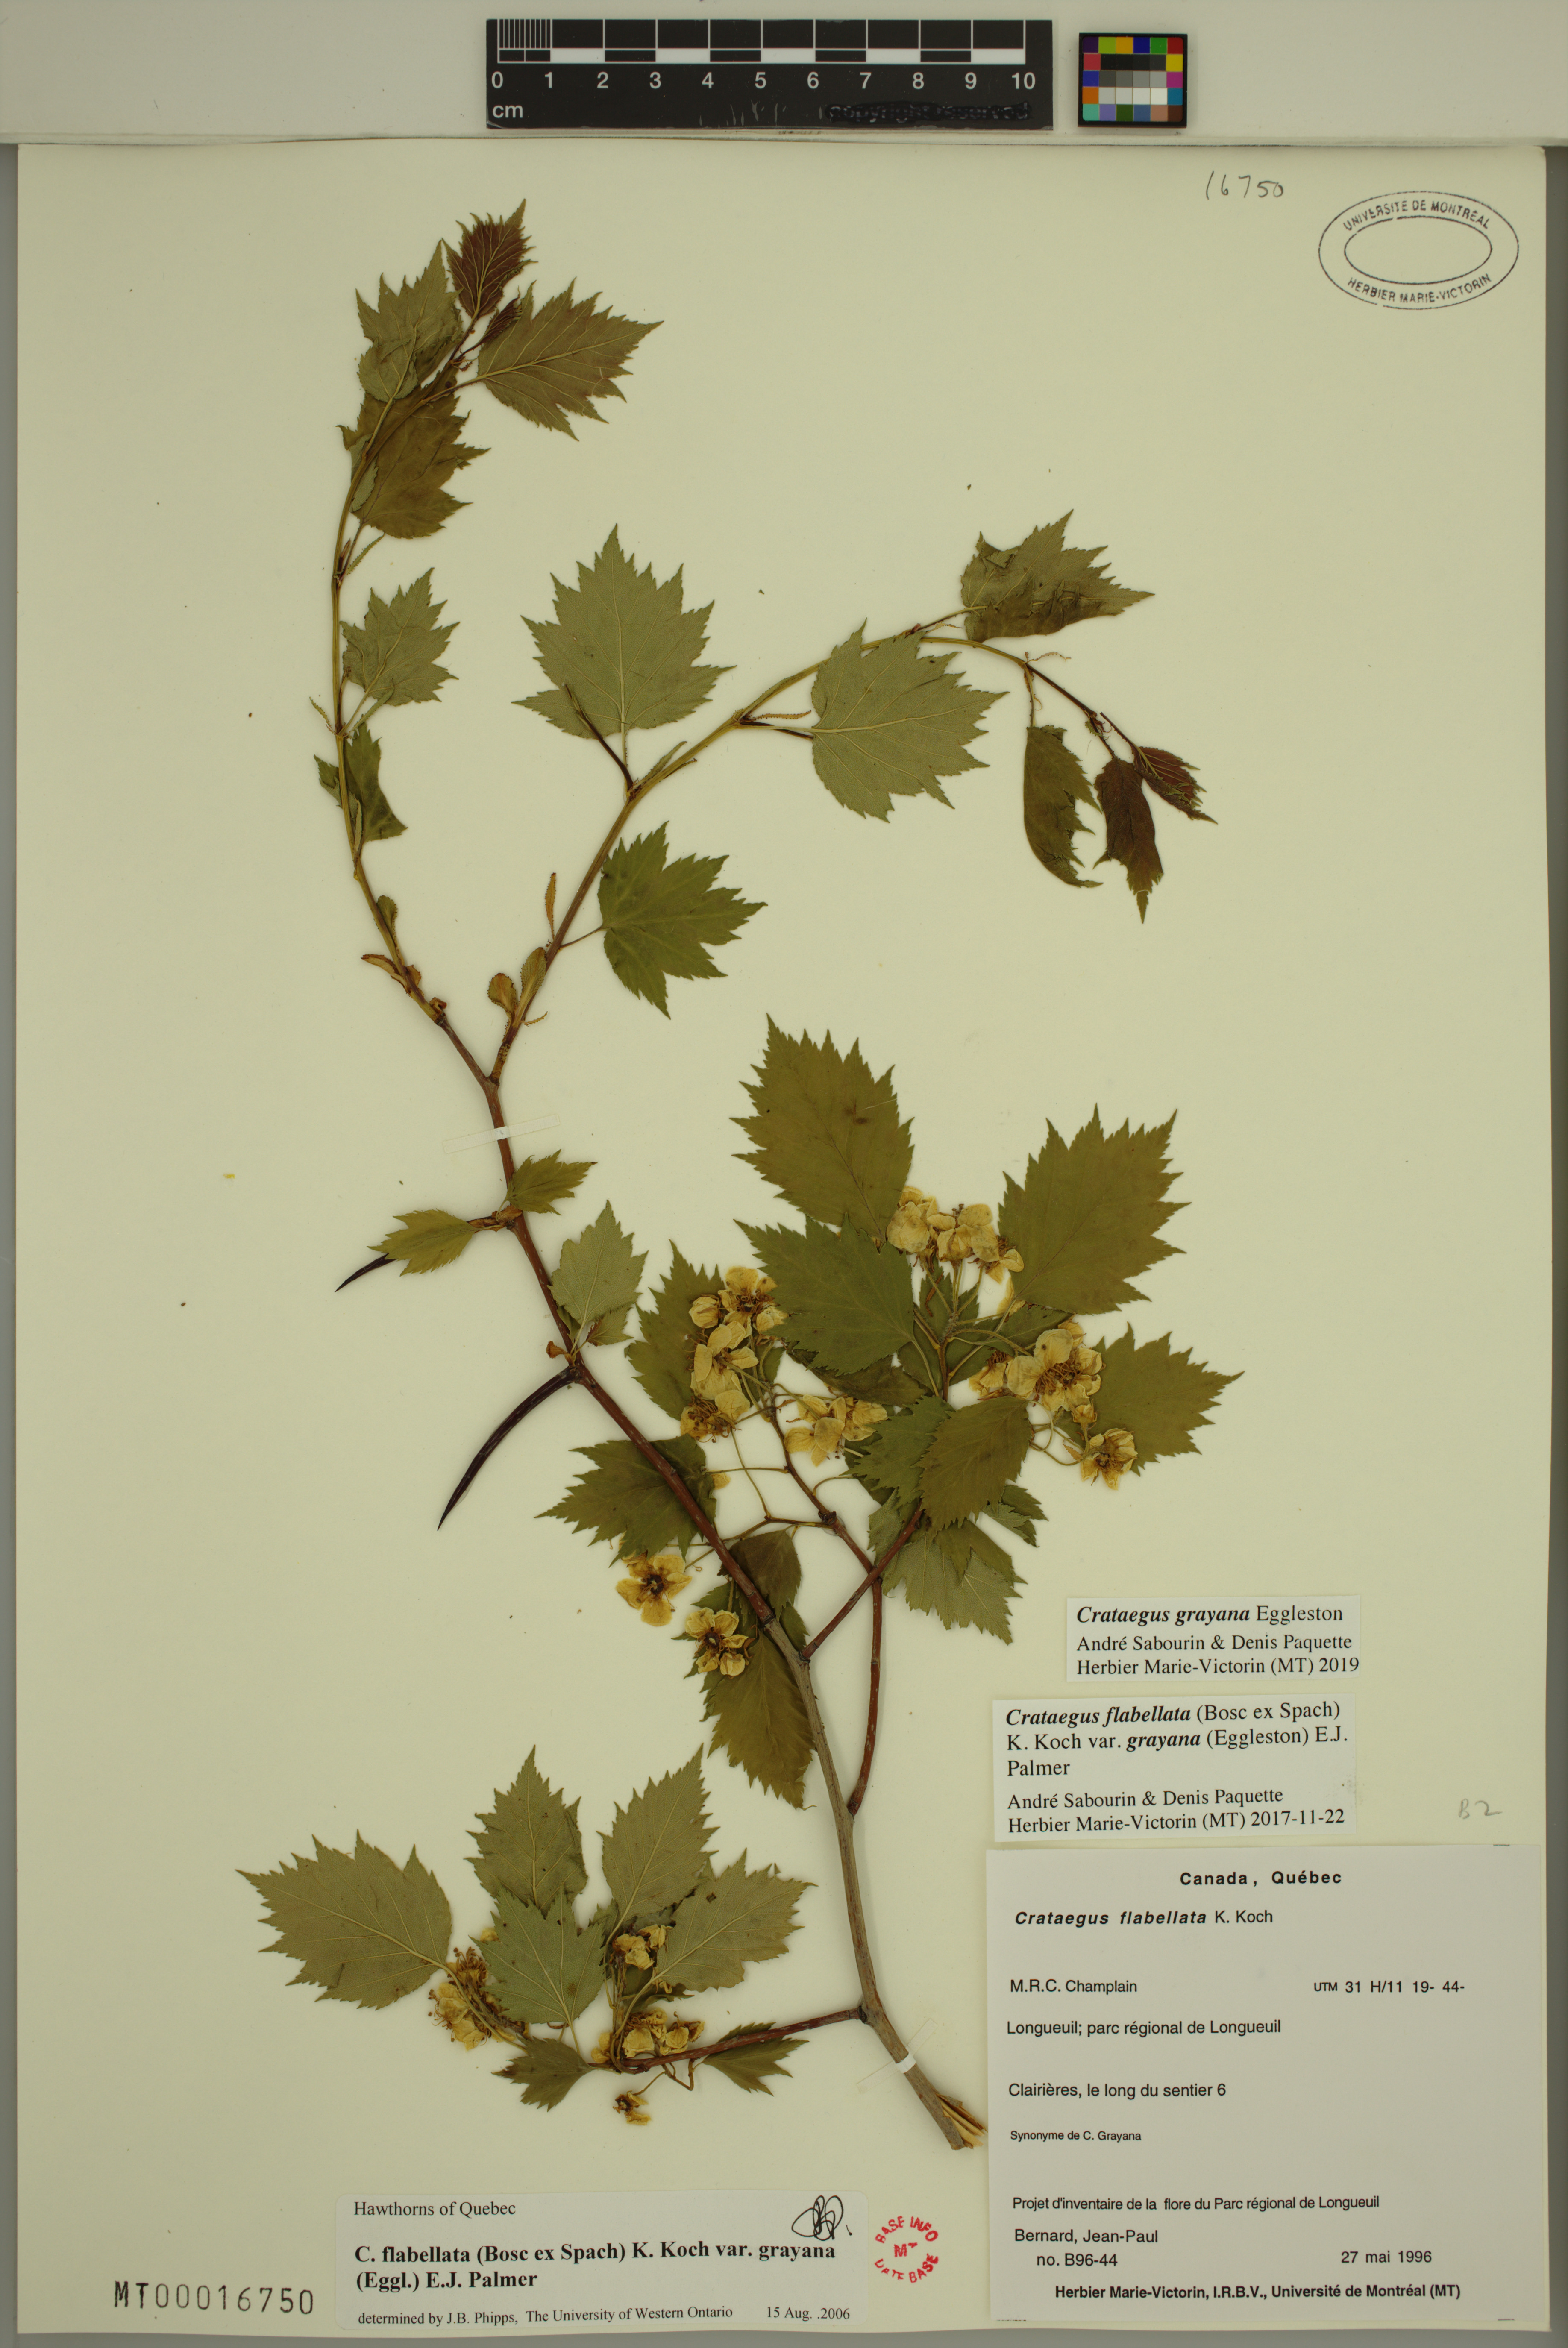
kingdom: Plantae
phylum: Tracheophyta
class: Magnoliopsida
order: Rosales
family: Rosaceae
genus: Crataegus
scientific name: Crataegus schuettei
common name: Schuette's hawthorn
